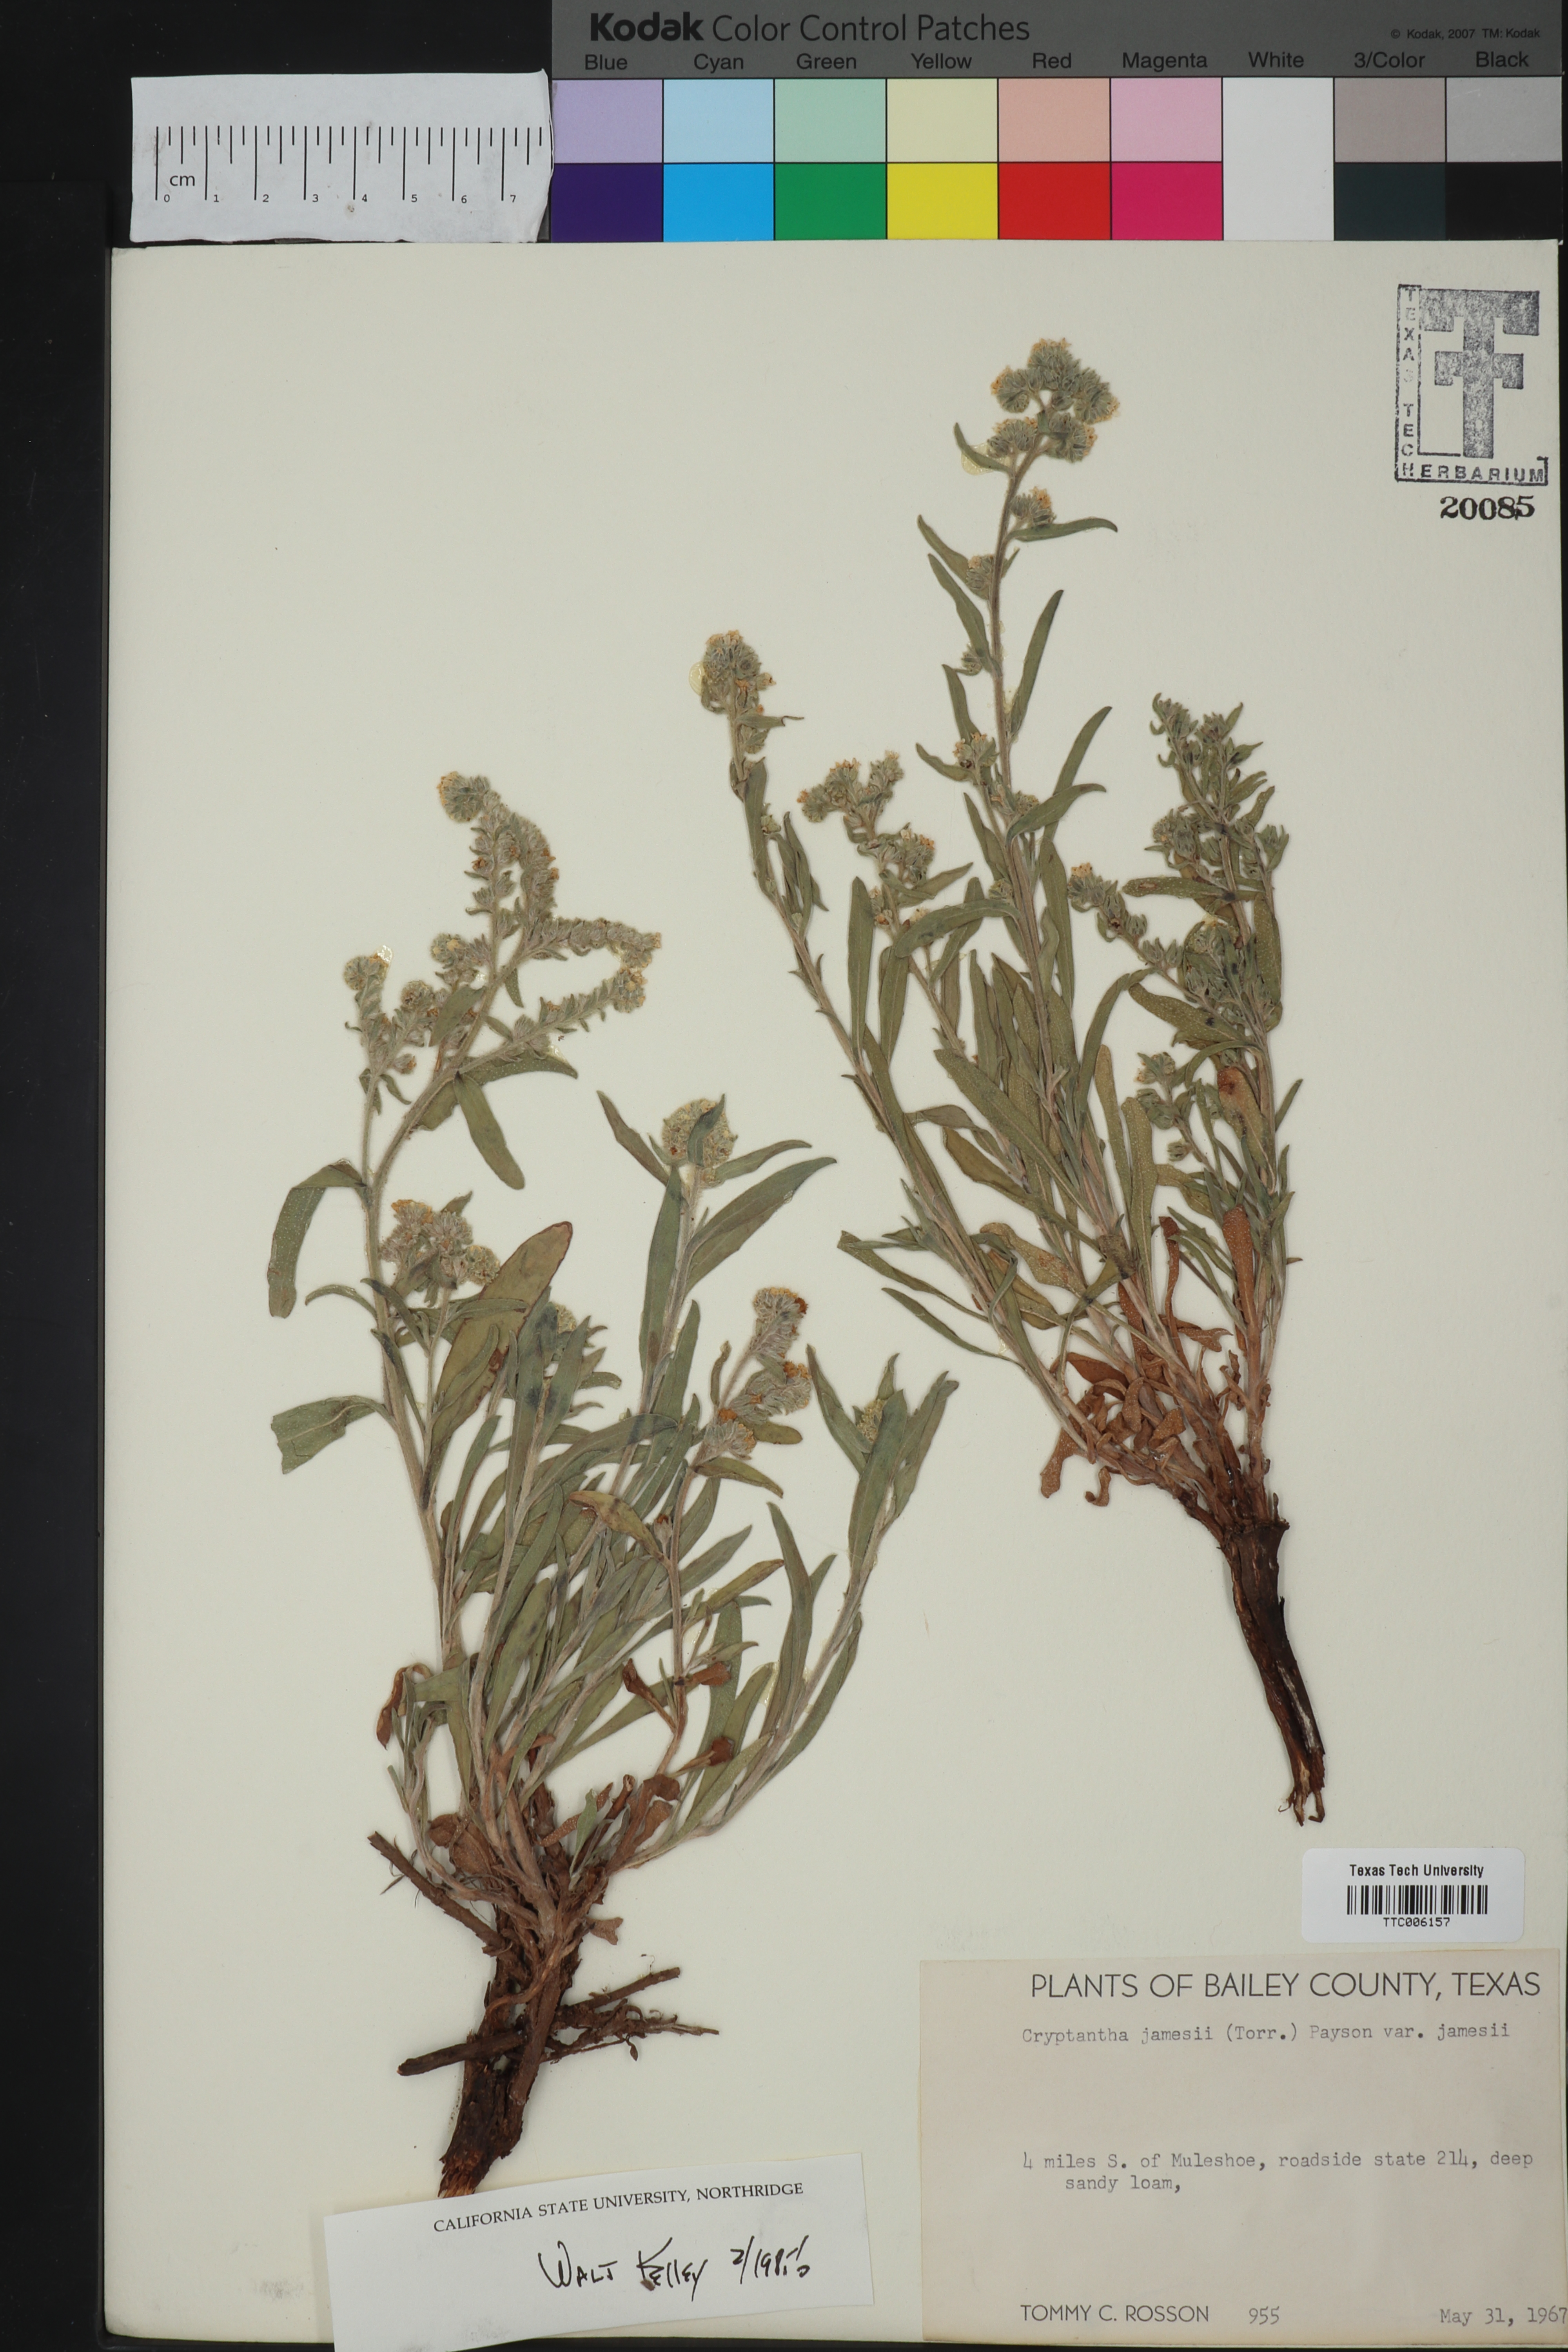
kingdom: Plantae
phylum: Tracheophyta
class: Magnoliopsida
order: Boraginales
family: Boraginaceae
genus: Oreocarya
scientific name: Oreocarya suffruticosa
